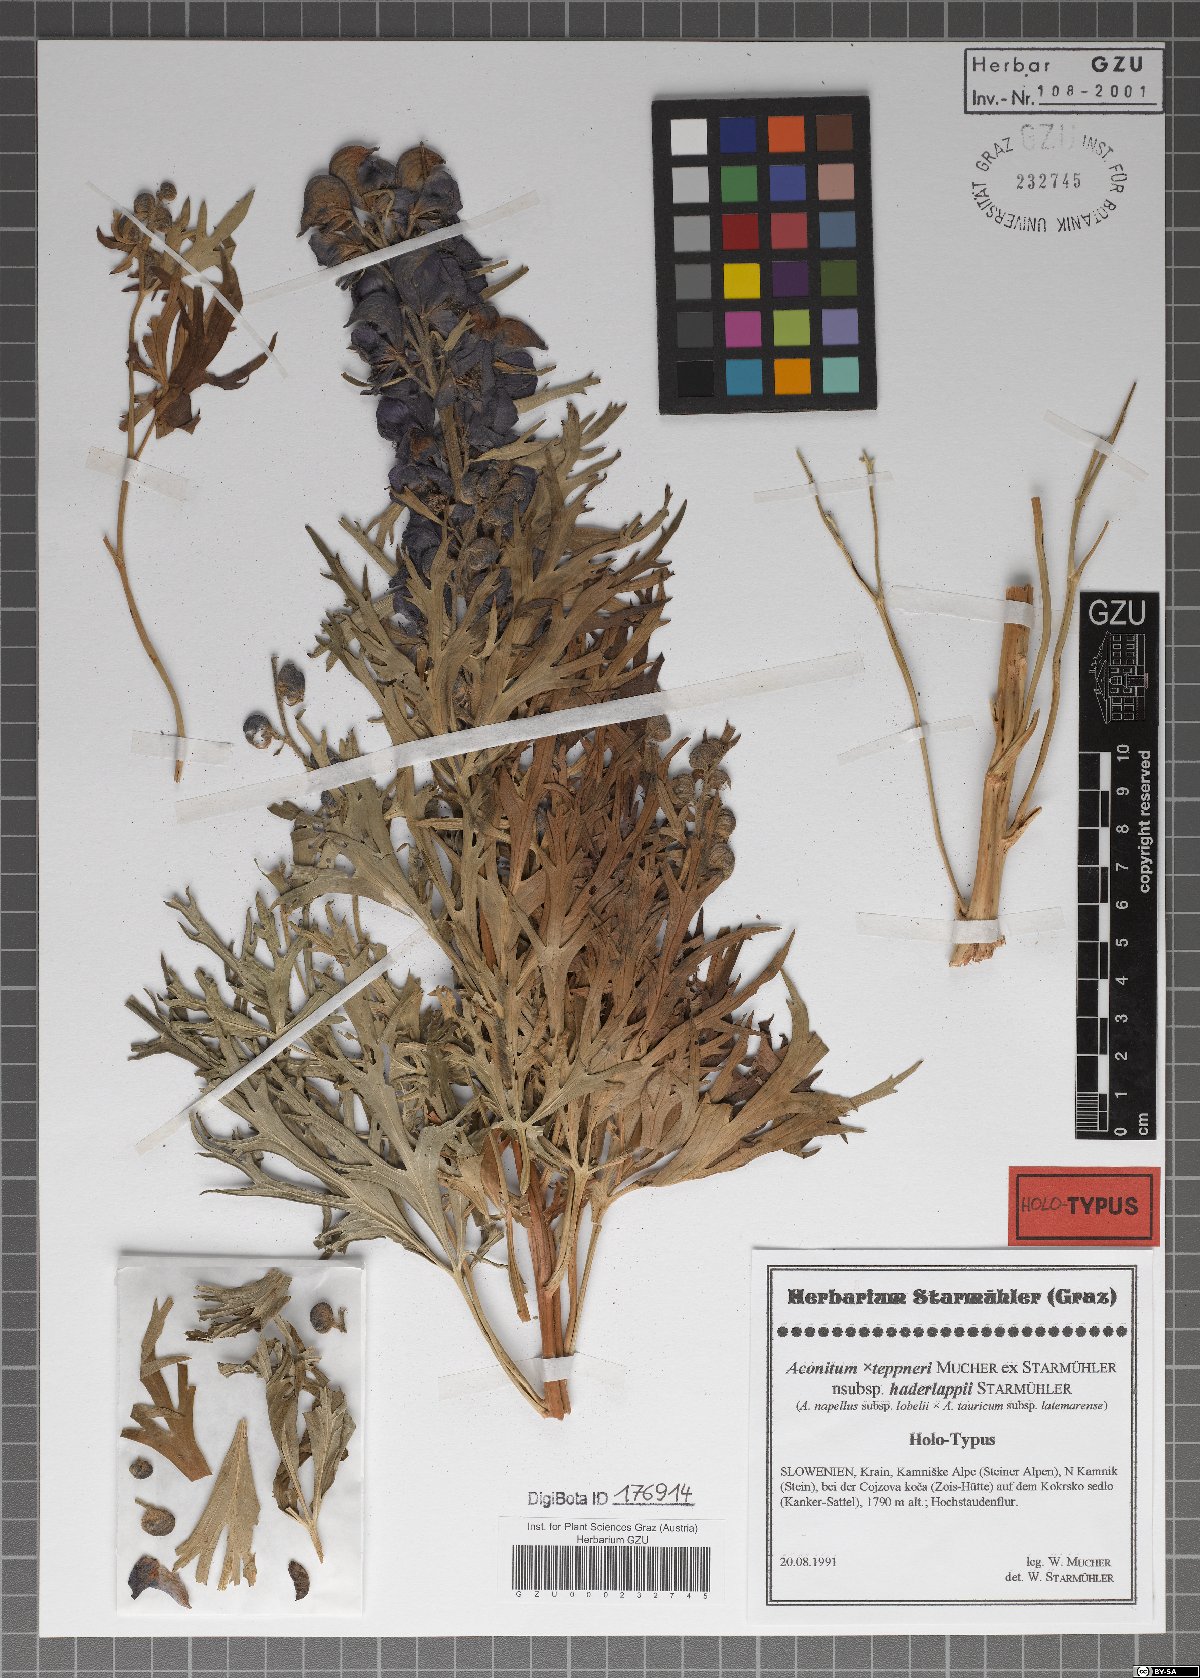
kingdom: Plantae
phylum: Tracheophyta
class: Magnoliopsida
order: Ranunculales
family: Ranunculaceae
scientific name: Ranunculaceae
